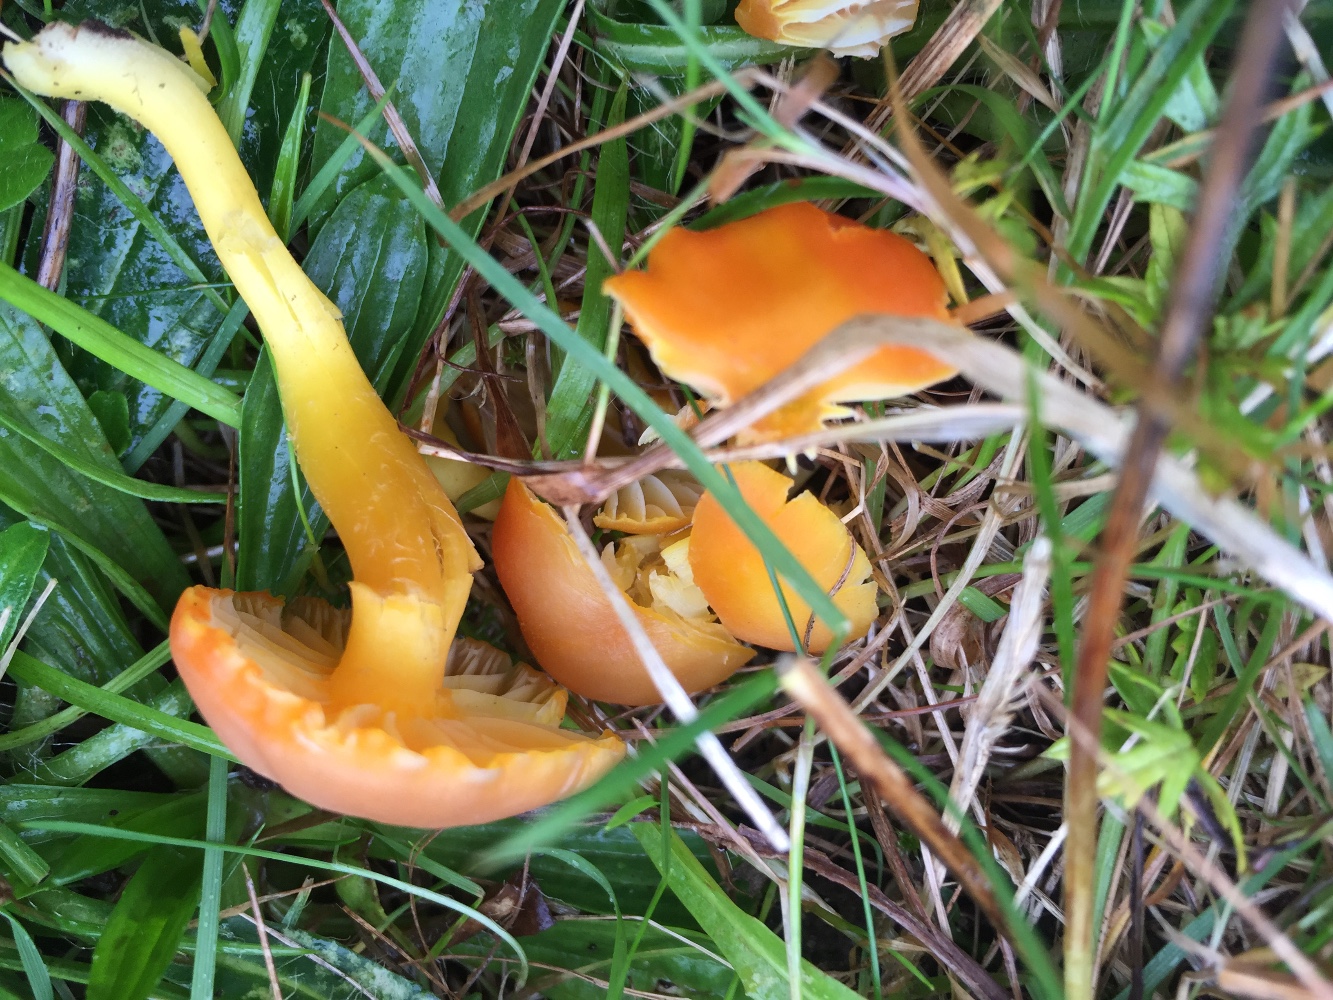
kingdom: Fungi
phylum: Basidiomycota
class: Agaricomycetes
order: Agaricales
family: Hygrophoraceae
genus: Hygrocybe
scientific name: Hygrocybe reidii
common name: honning-vokshat
